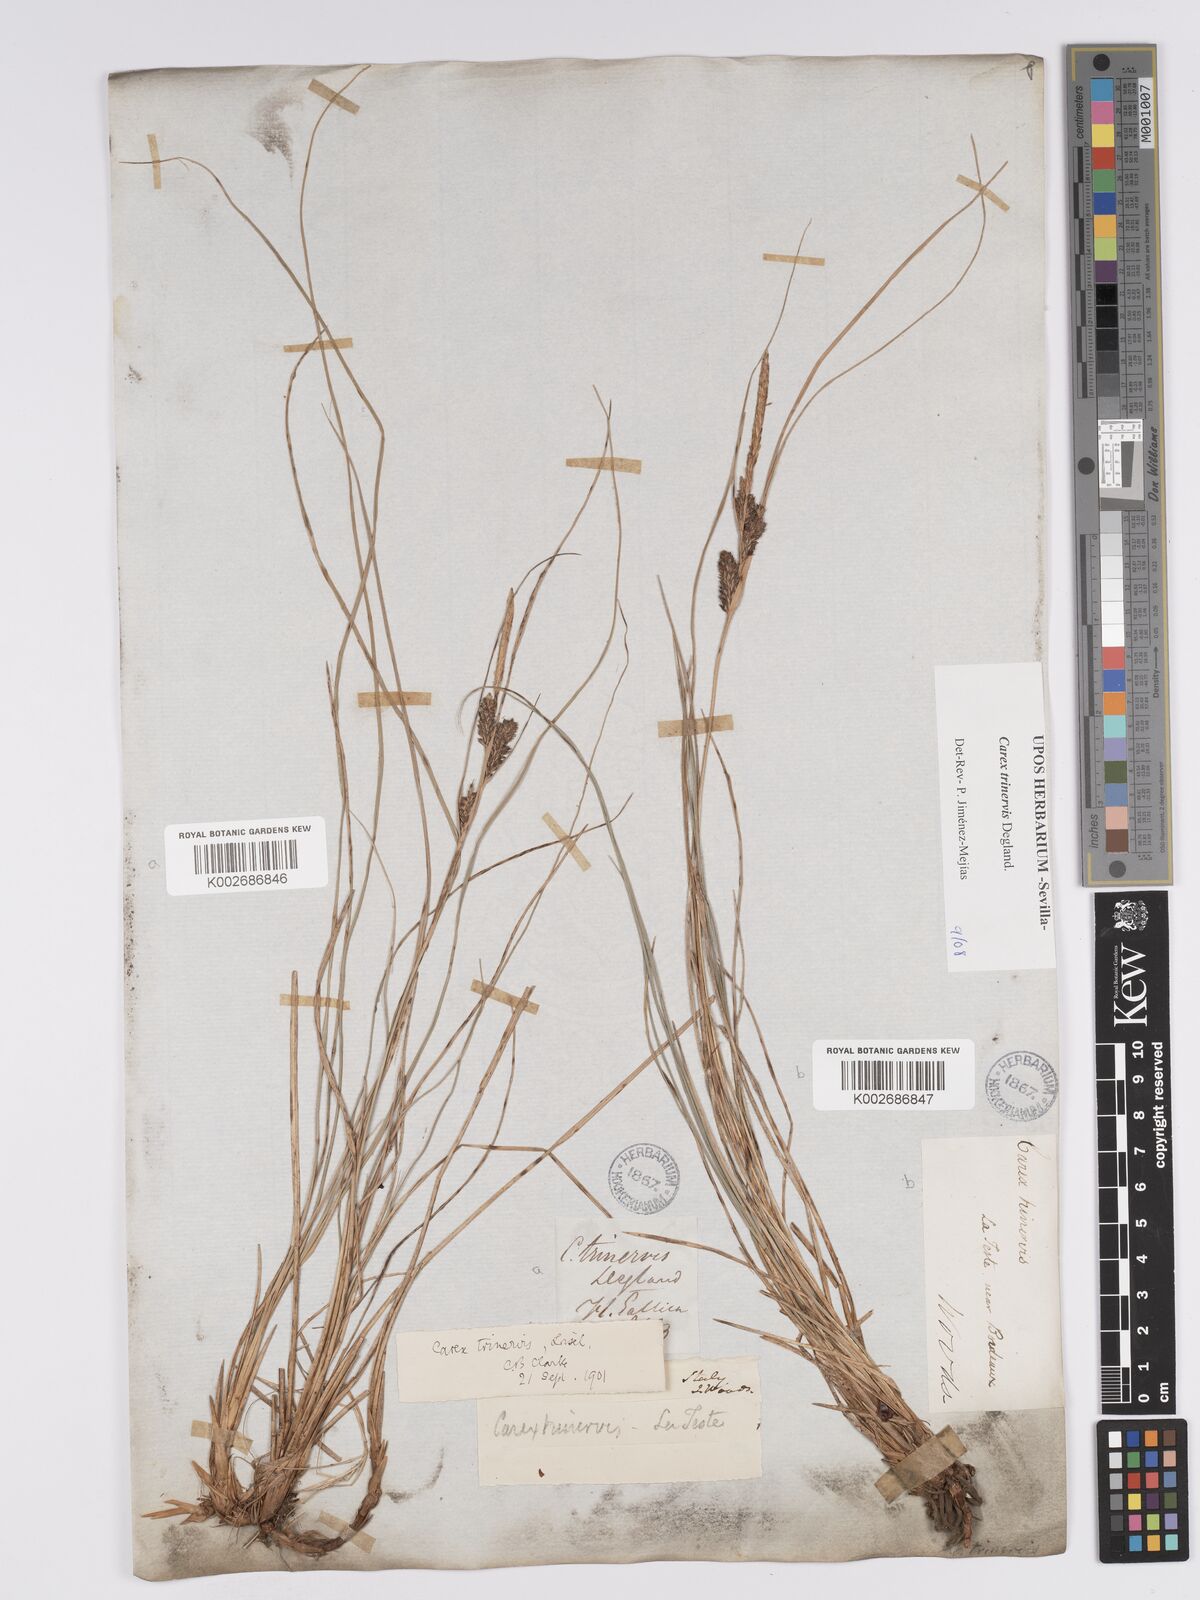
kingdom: Plantae
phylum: Tracheophyta
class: Liliopsida
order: Poales
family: Cyperaceae
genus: Carex
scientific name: Carex trinervis
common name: Three-nerved sedge
